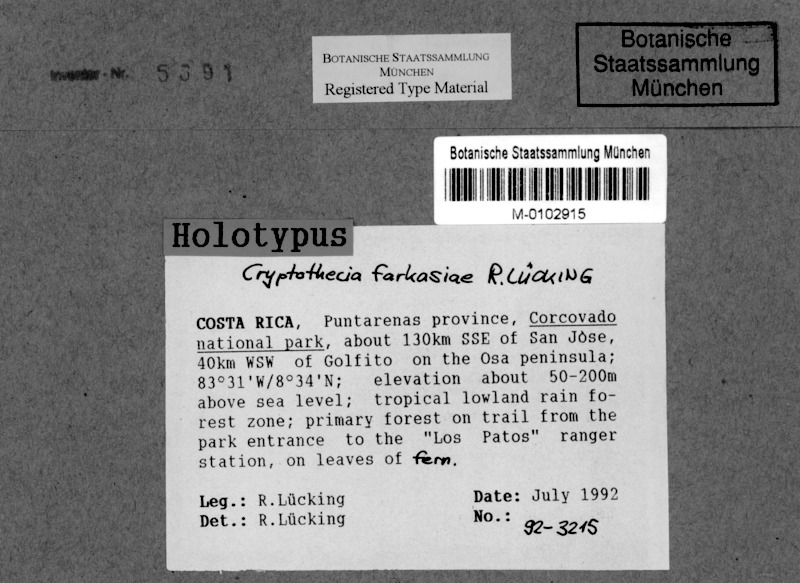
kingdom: Fungi
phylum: Ascomycota
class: Arthoniomycetes
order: Arthoniales
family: Arthoniaceae
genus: Cryptothecia
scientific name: Cryptothecia farkasiae
